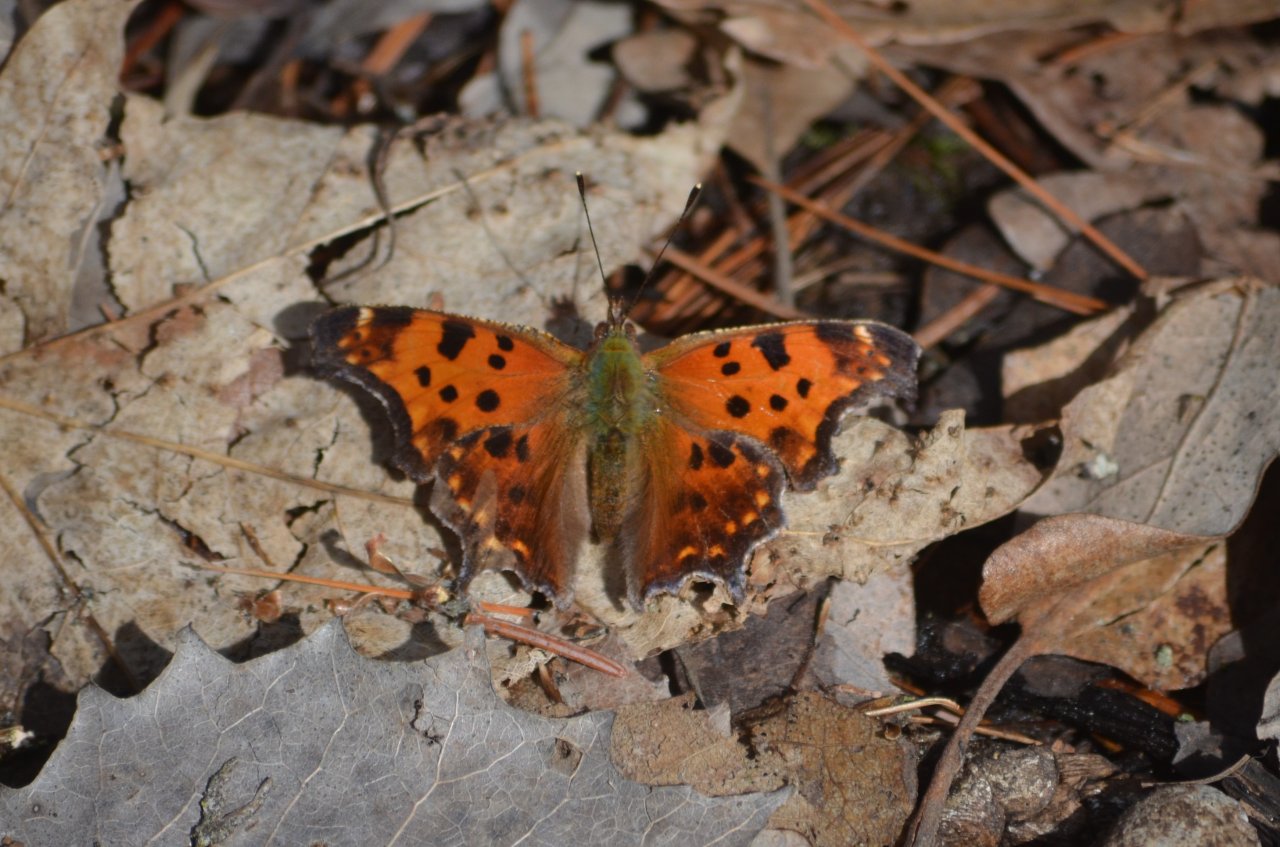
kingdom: Animalia
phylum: Arthropoda
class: Insecta
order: Lepidoptera
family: Nymphalidae
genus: Polygonia
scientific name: Polygonia comma
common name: Eastern Comma
